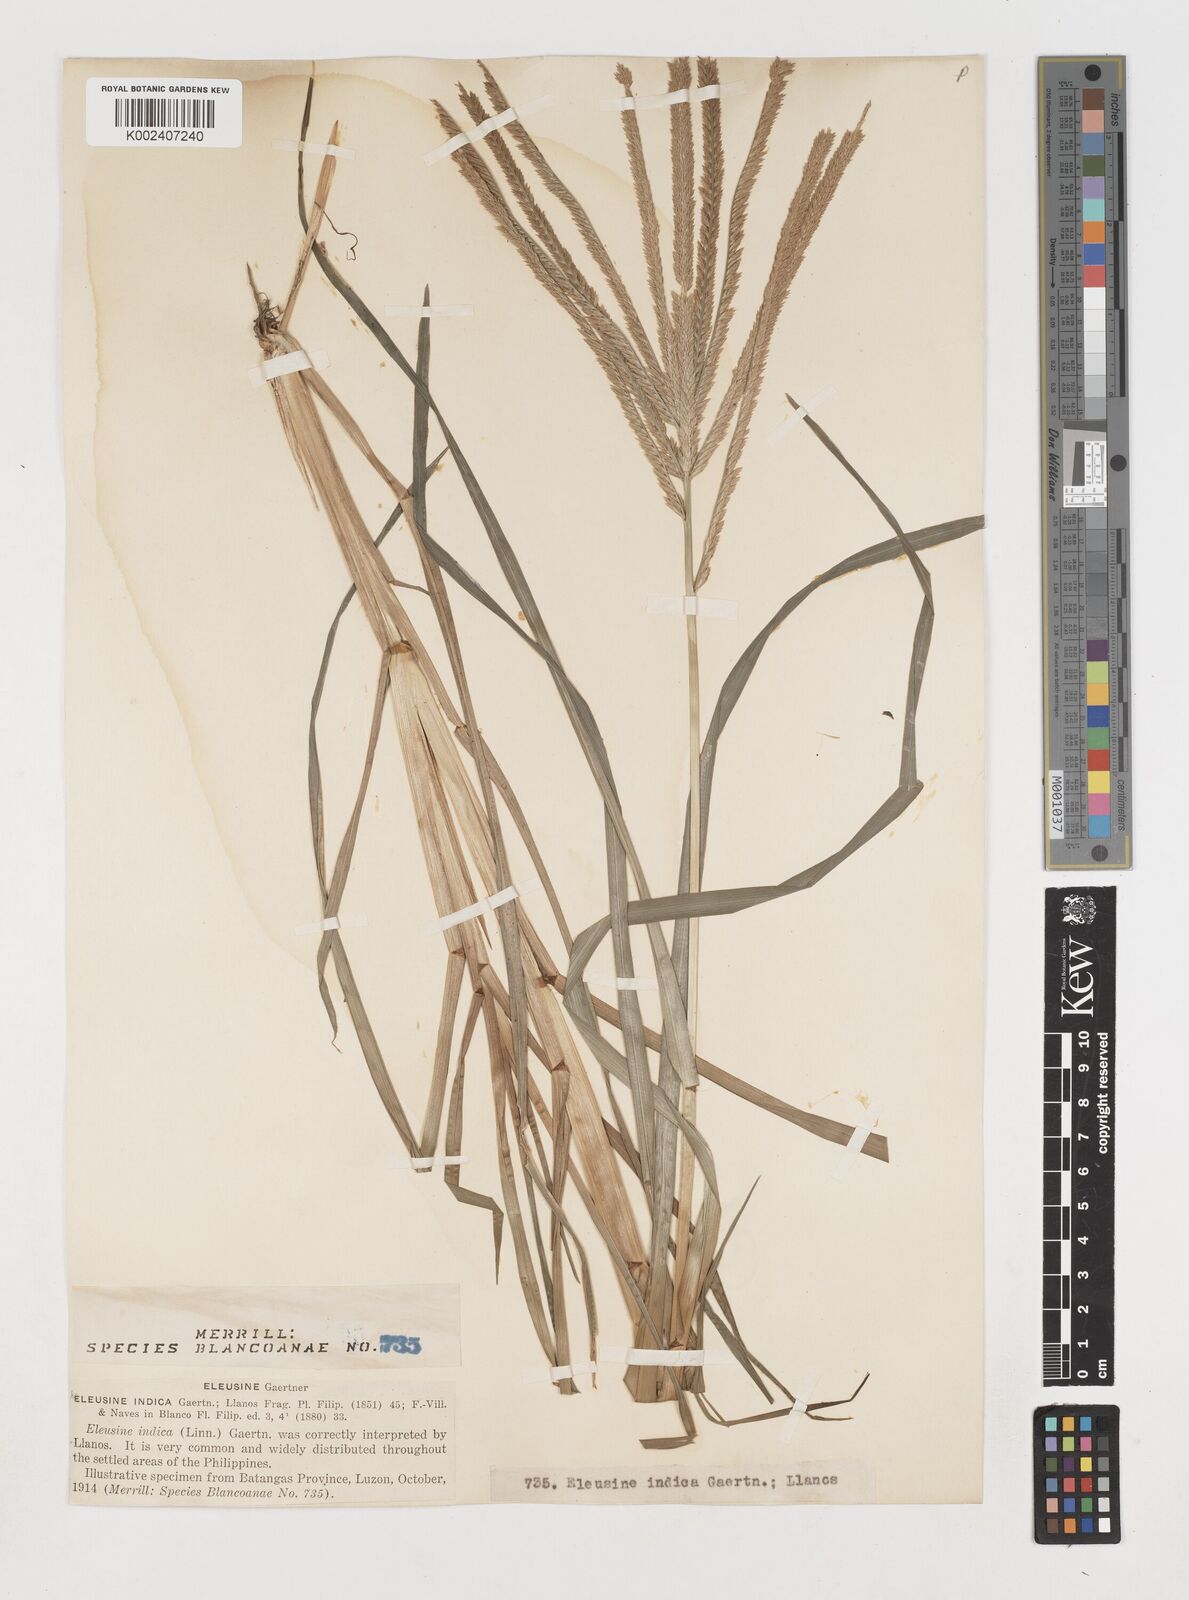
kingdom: Plantae
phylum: Tracheophyta
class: Liliopsida
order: Poales
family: Poaceae
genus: Eleusine
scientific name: Eleusine indica
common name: Yard-grass
